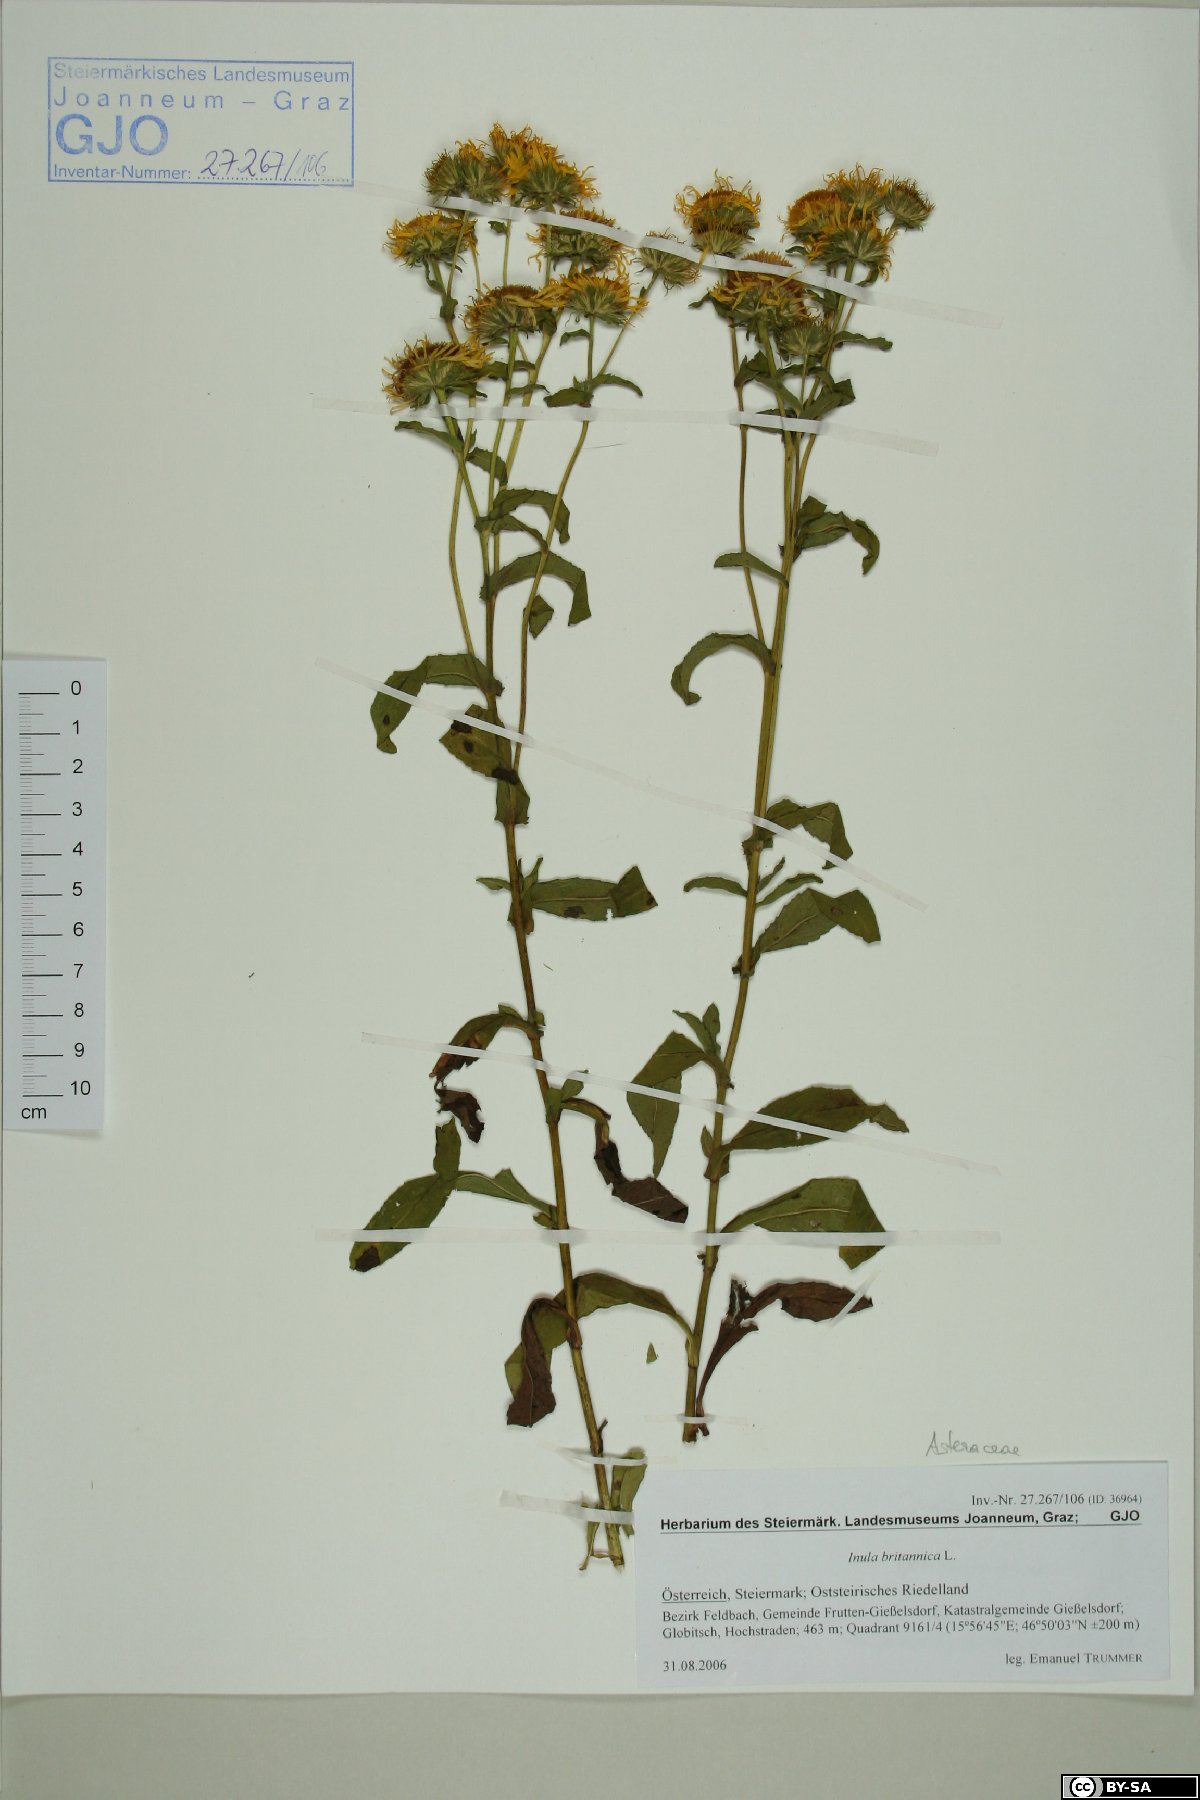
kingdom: Plantae
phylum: Tracheophyta
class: Magnoliopsida
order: Asterales
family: Asteraceae
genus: Pentanema
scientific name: Pentanema britannicum
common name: British elecampane
